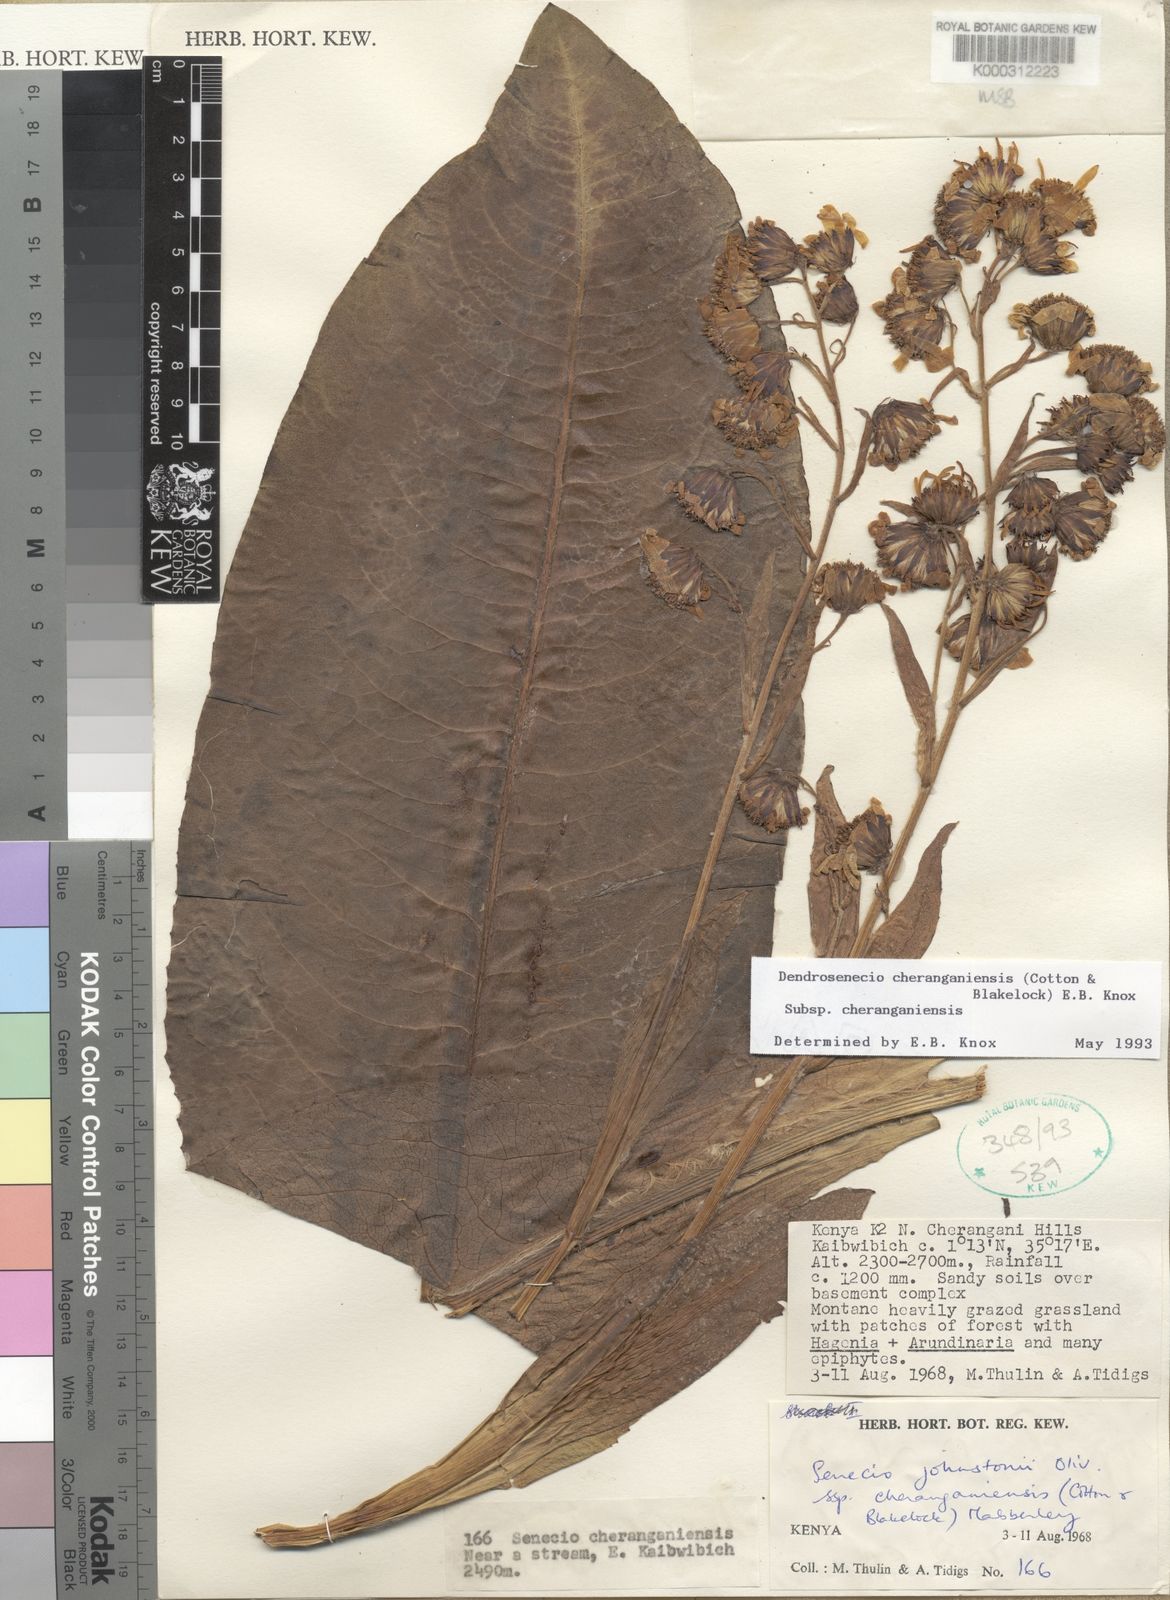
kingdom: Plantae
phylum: Tracheophyta
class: Magnoliopsida
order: Asterales
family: Asteraceae
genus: Dendrosenecio
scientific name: Dendrosenecio cheranganiensis
